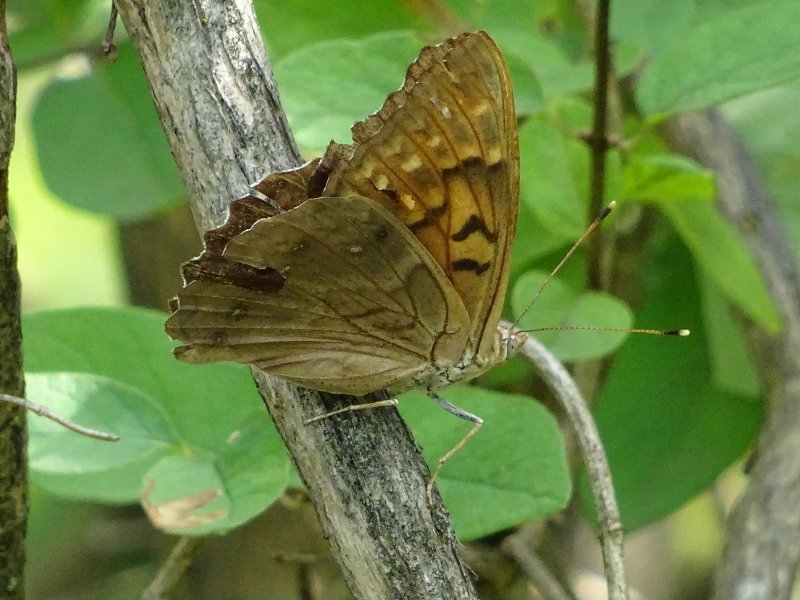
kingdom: Animalia
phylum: Arthropoda
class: Insecta
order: Lepidoptera
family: Nymphalidae
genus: Asterocampa
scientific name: Asterocampa clyton
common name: Tawny Emperor
